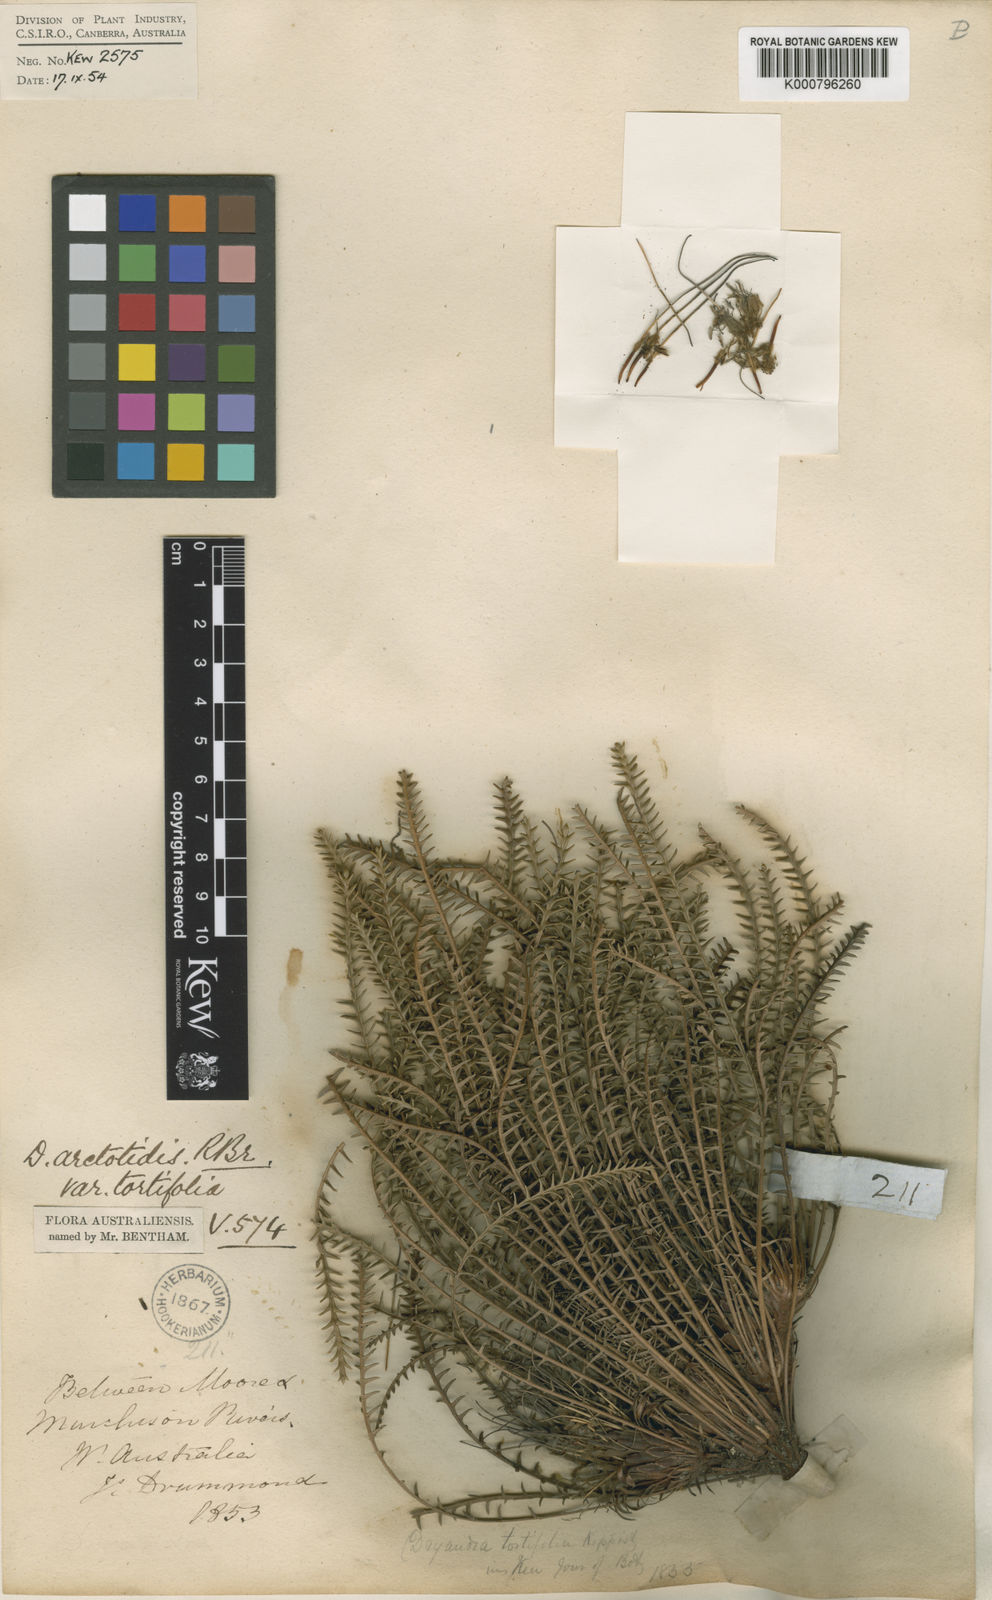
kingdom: Plantae
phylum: Tracheophyta
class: Magnoliopsida
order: Proteales
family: Proteaceae
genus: Banksia
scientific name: Banksia arctotidis
